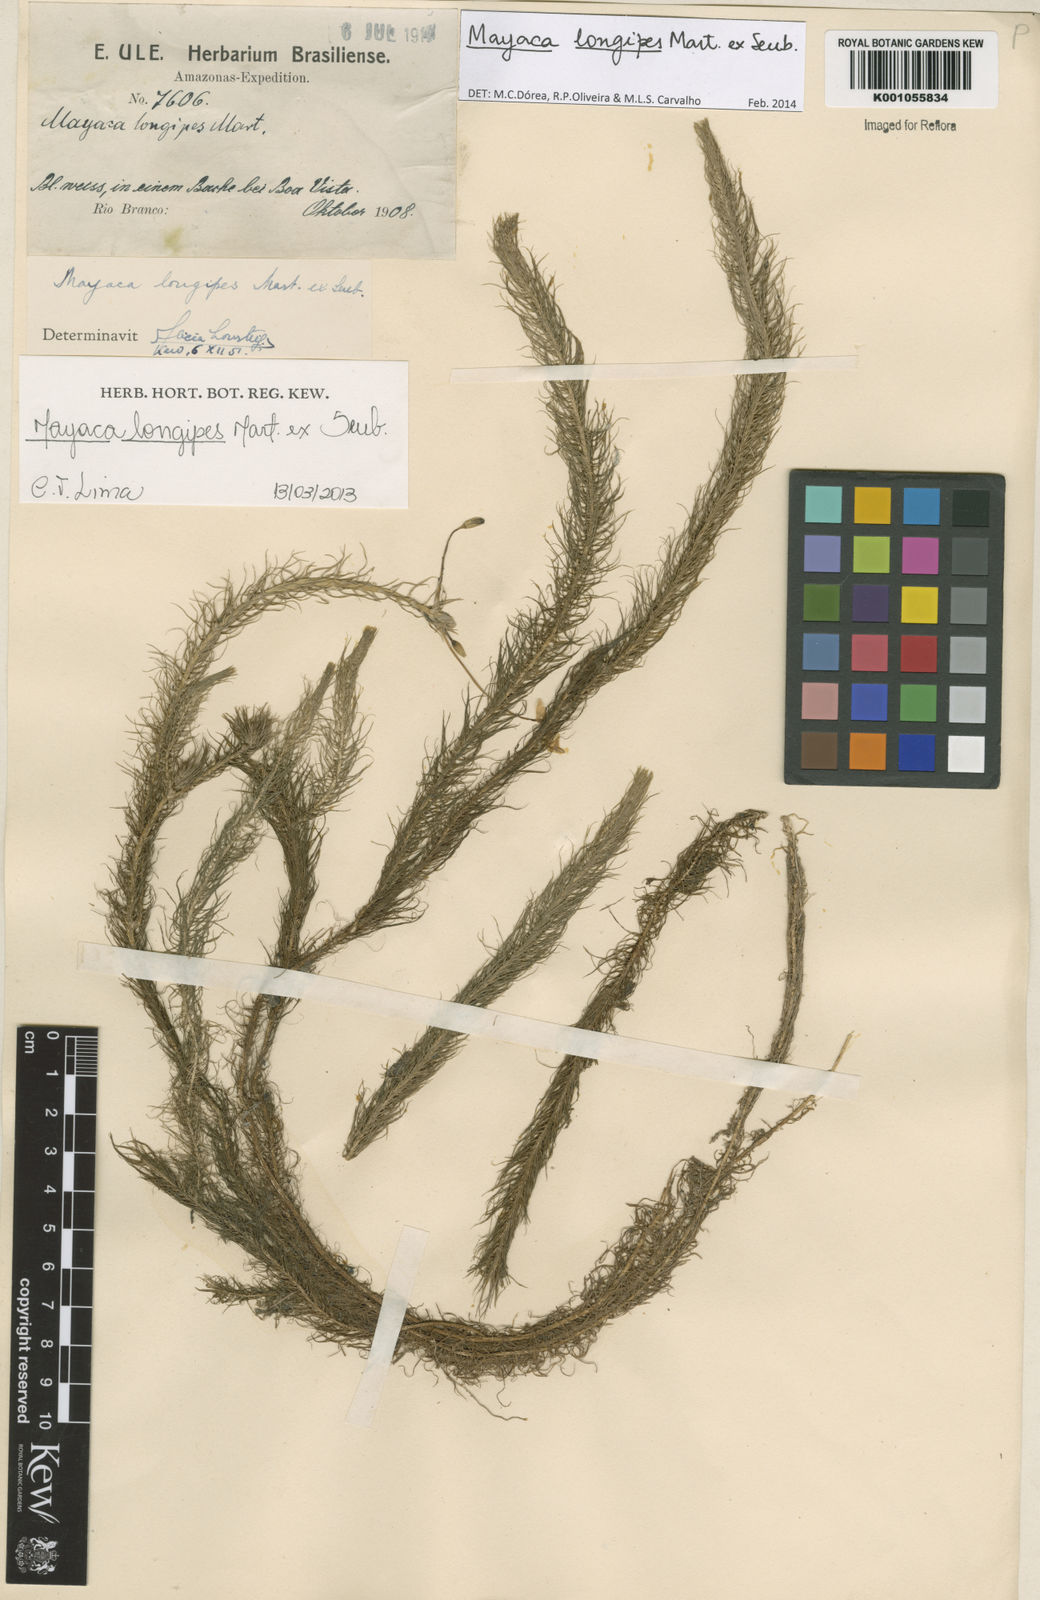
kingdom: Plantae
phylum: Tracheophyta
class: Liliopsida
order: Poales
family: Mayacaceae
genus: Mayaca
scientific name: Mayaca longipes
